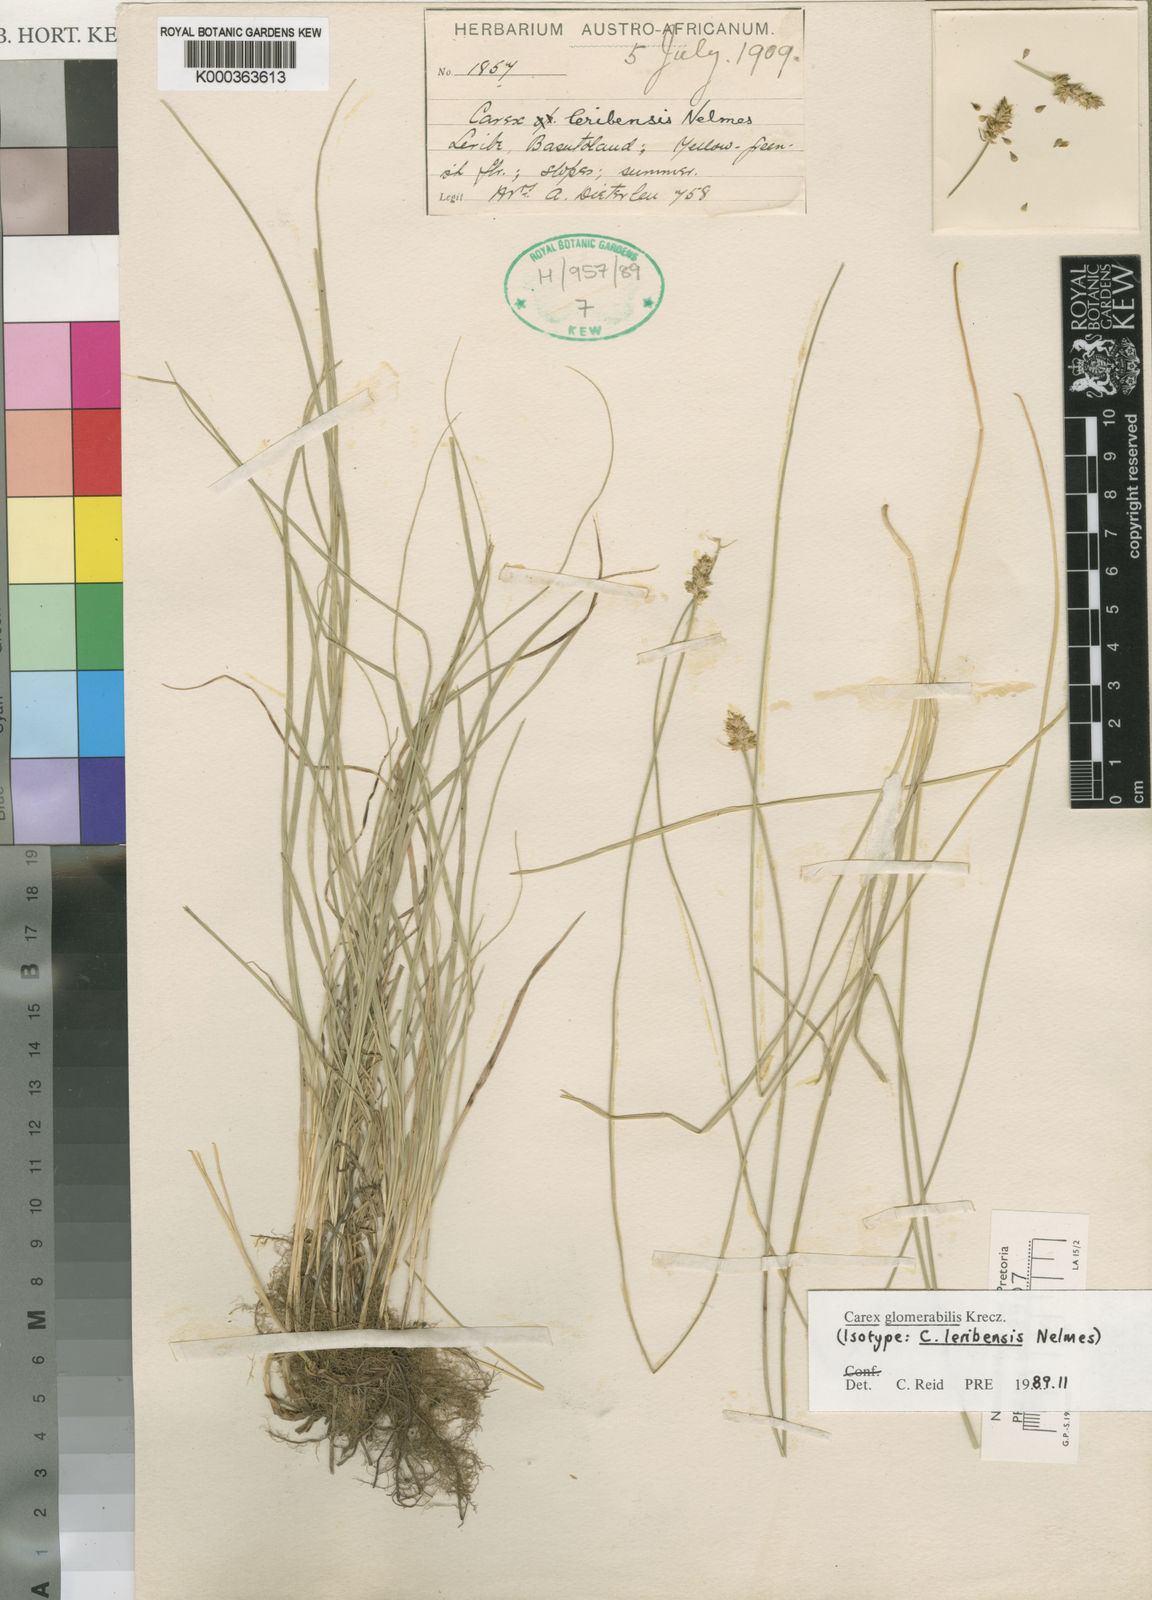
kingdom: Plantae
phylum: Tracheophyta
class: Liliopsida
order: Poales
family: Cyperaceae
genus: Carex
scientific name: Carex glomerata
